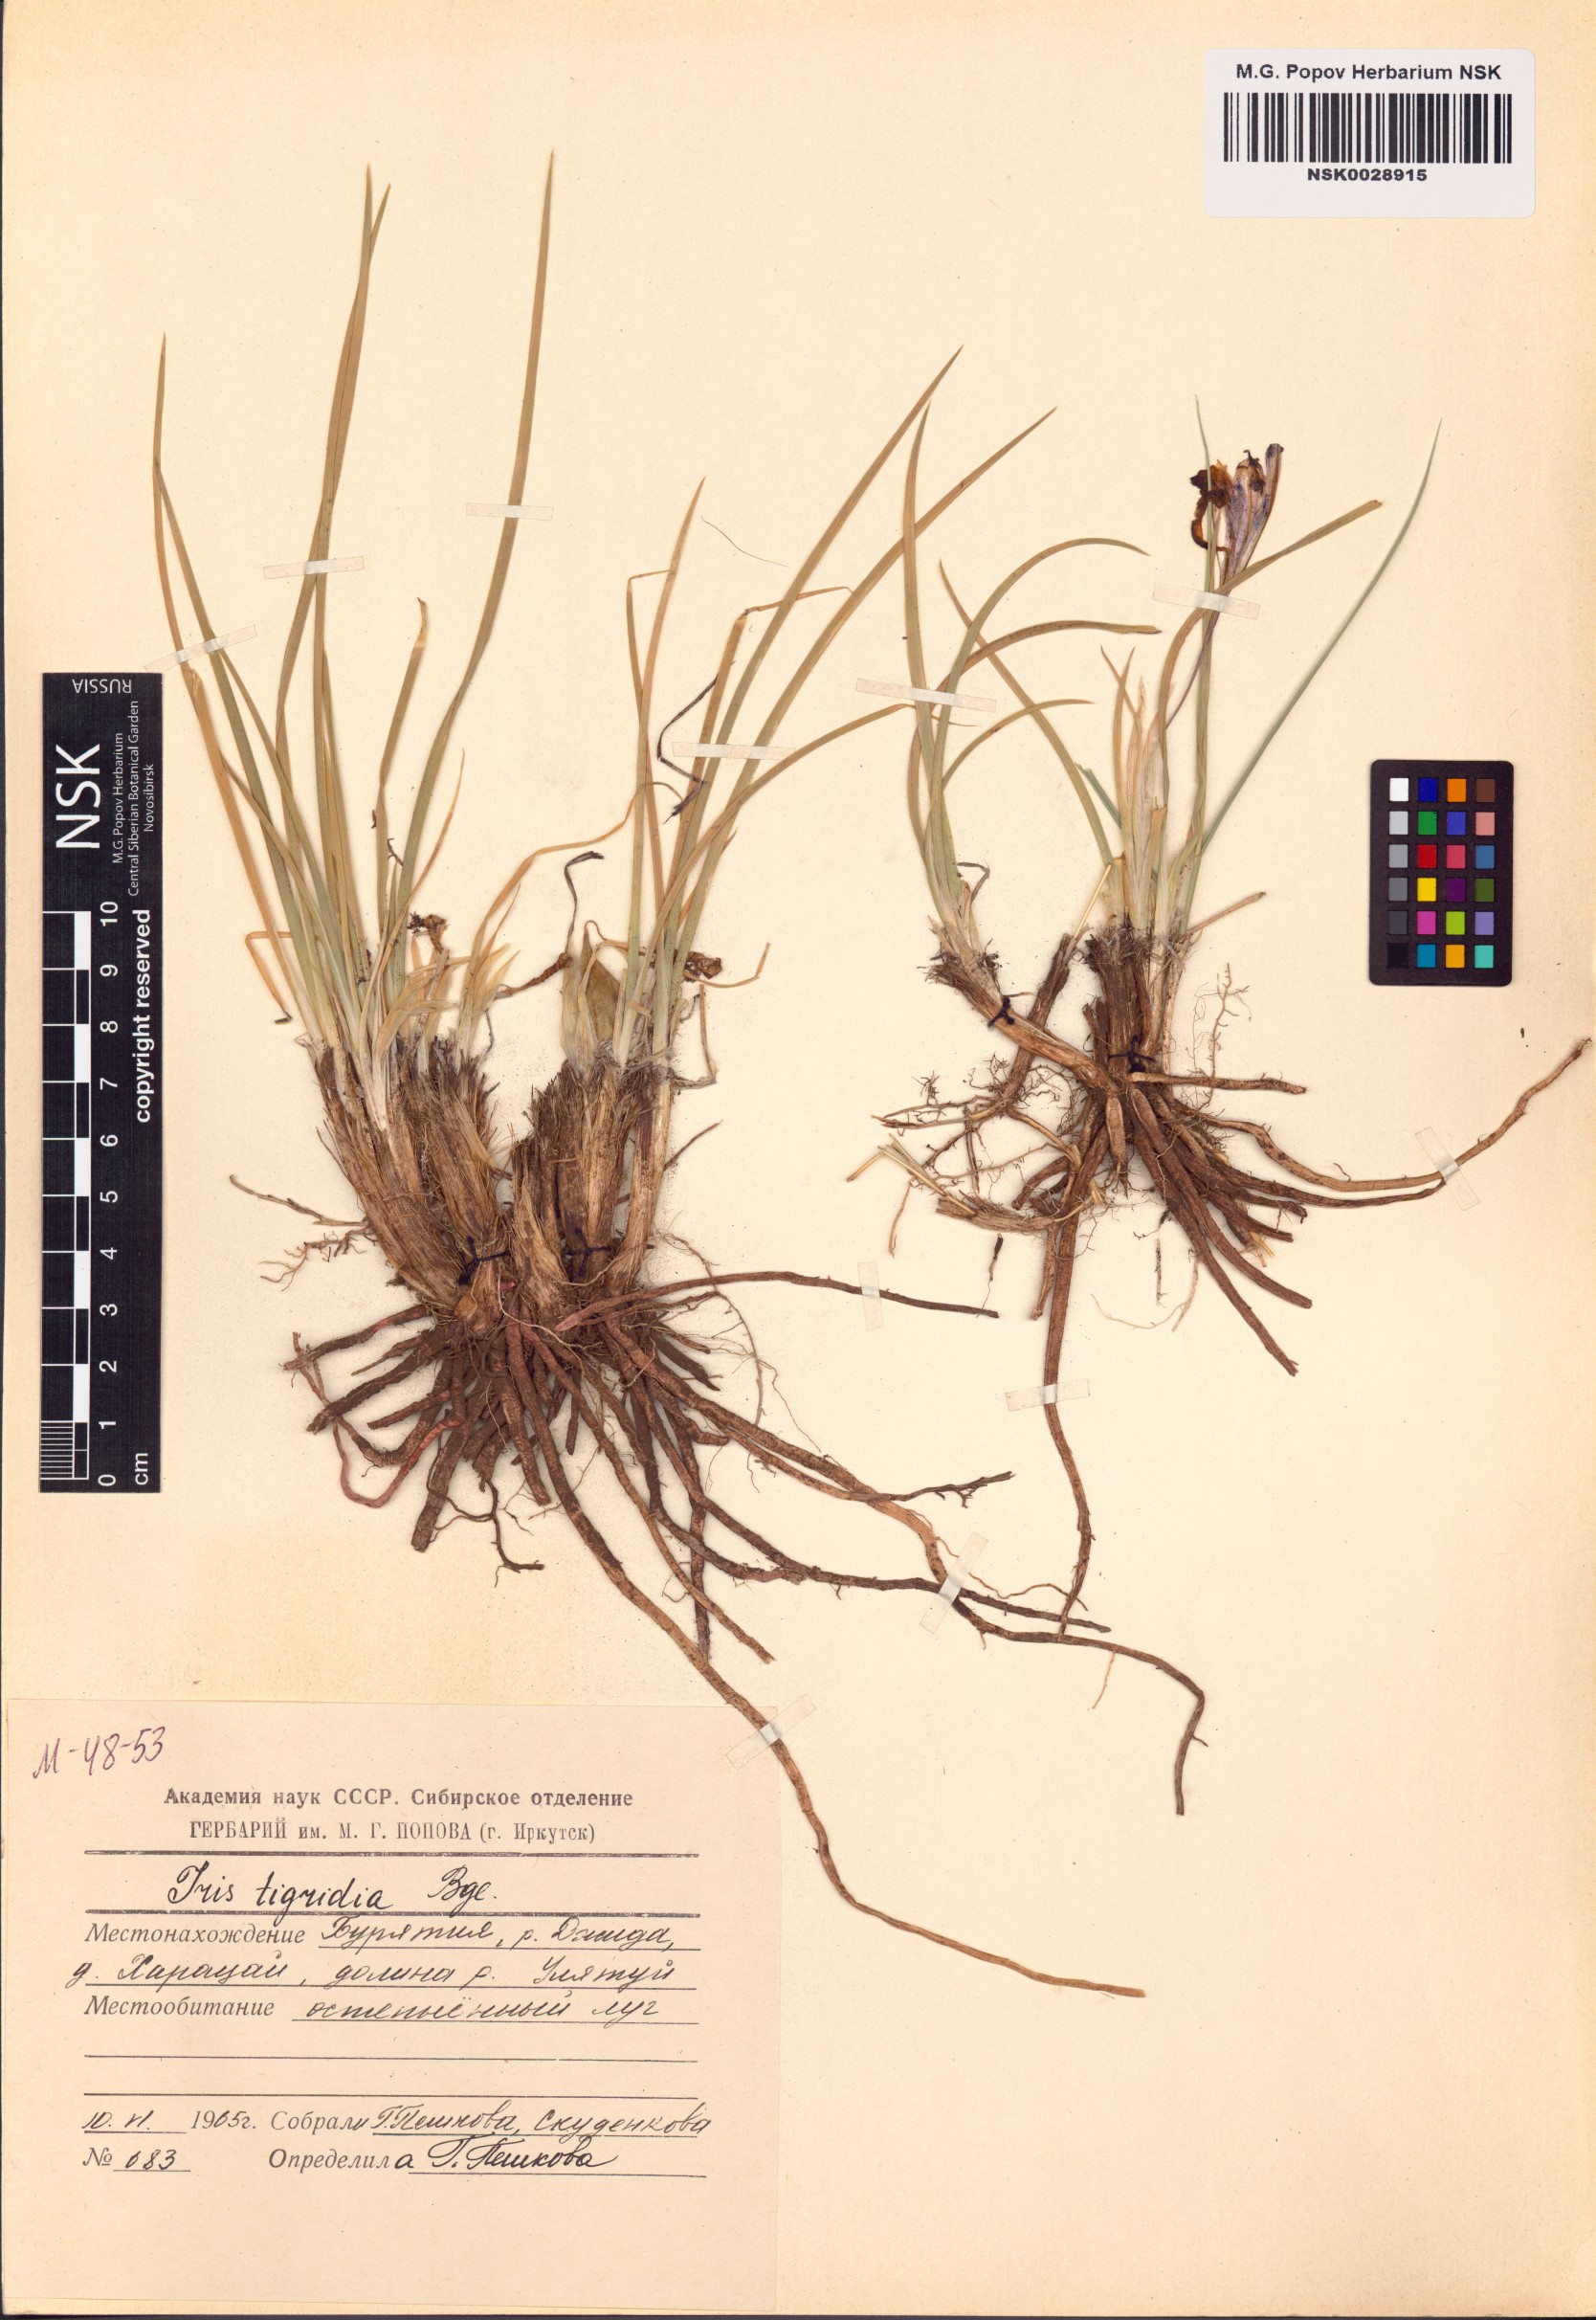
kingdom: Plantae
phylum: Tracheophyta
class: Liliopsida
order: Asparagales
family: Iridaceae
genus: Iris
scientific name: Iris tigridia
